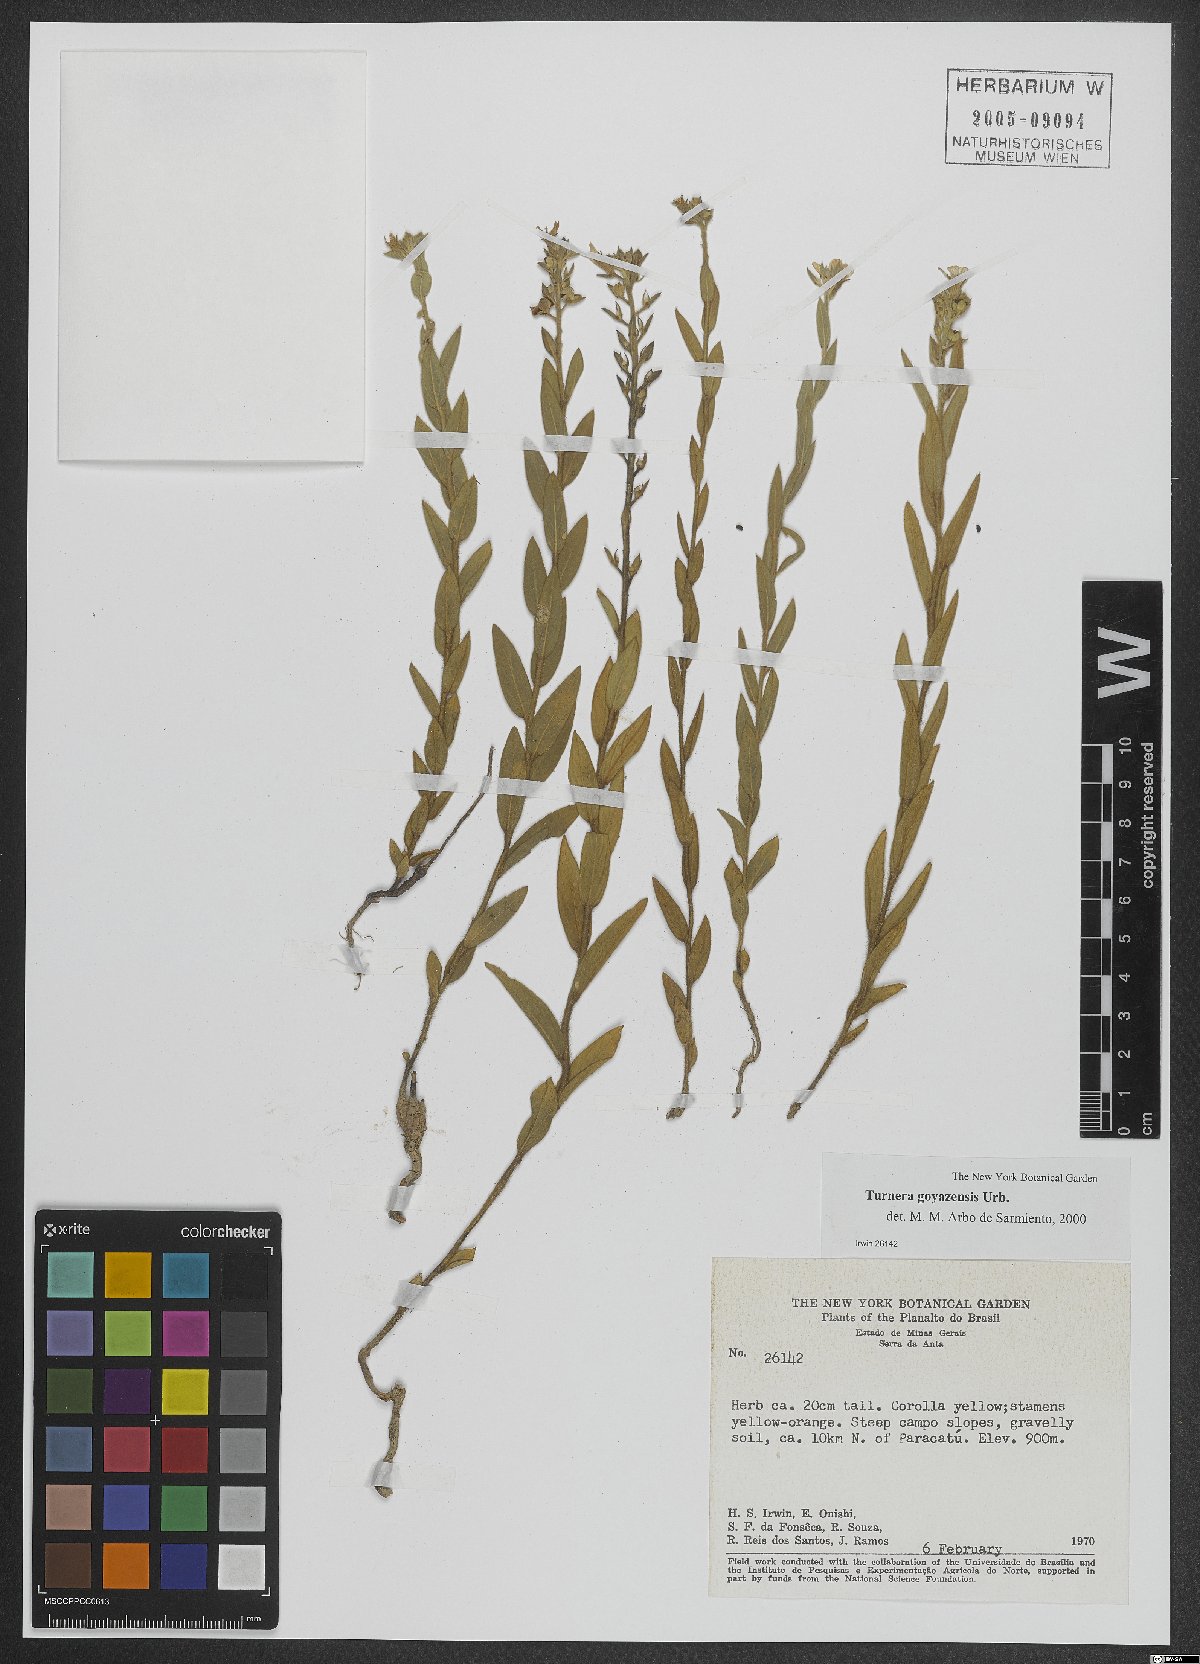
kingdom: Plantae
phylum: Tracheophyta
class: Magnoliopsida
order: Malpighiales
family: Turneraceae
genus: Turnera
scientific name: Turnera oblongifolia
